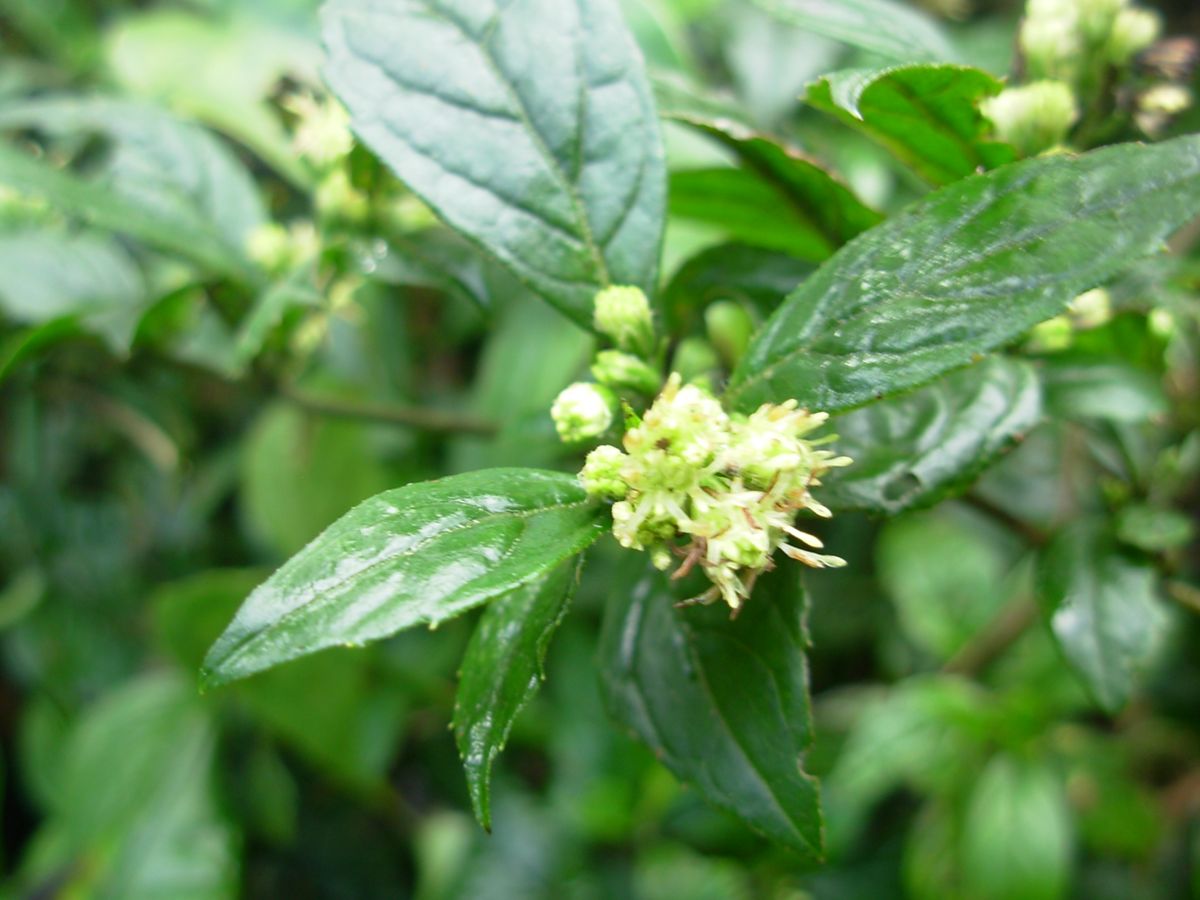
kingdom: Plantae
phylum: Tracheophyta
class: Magnoliopsida
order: Asterales
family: Asteraceae
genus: Archibaccharis
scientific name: Archibaccharis flexilis
